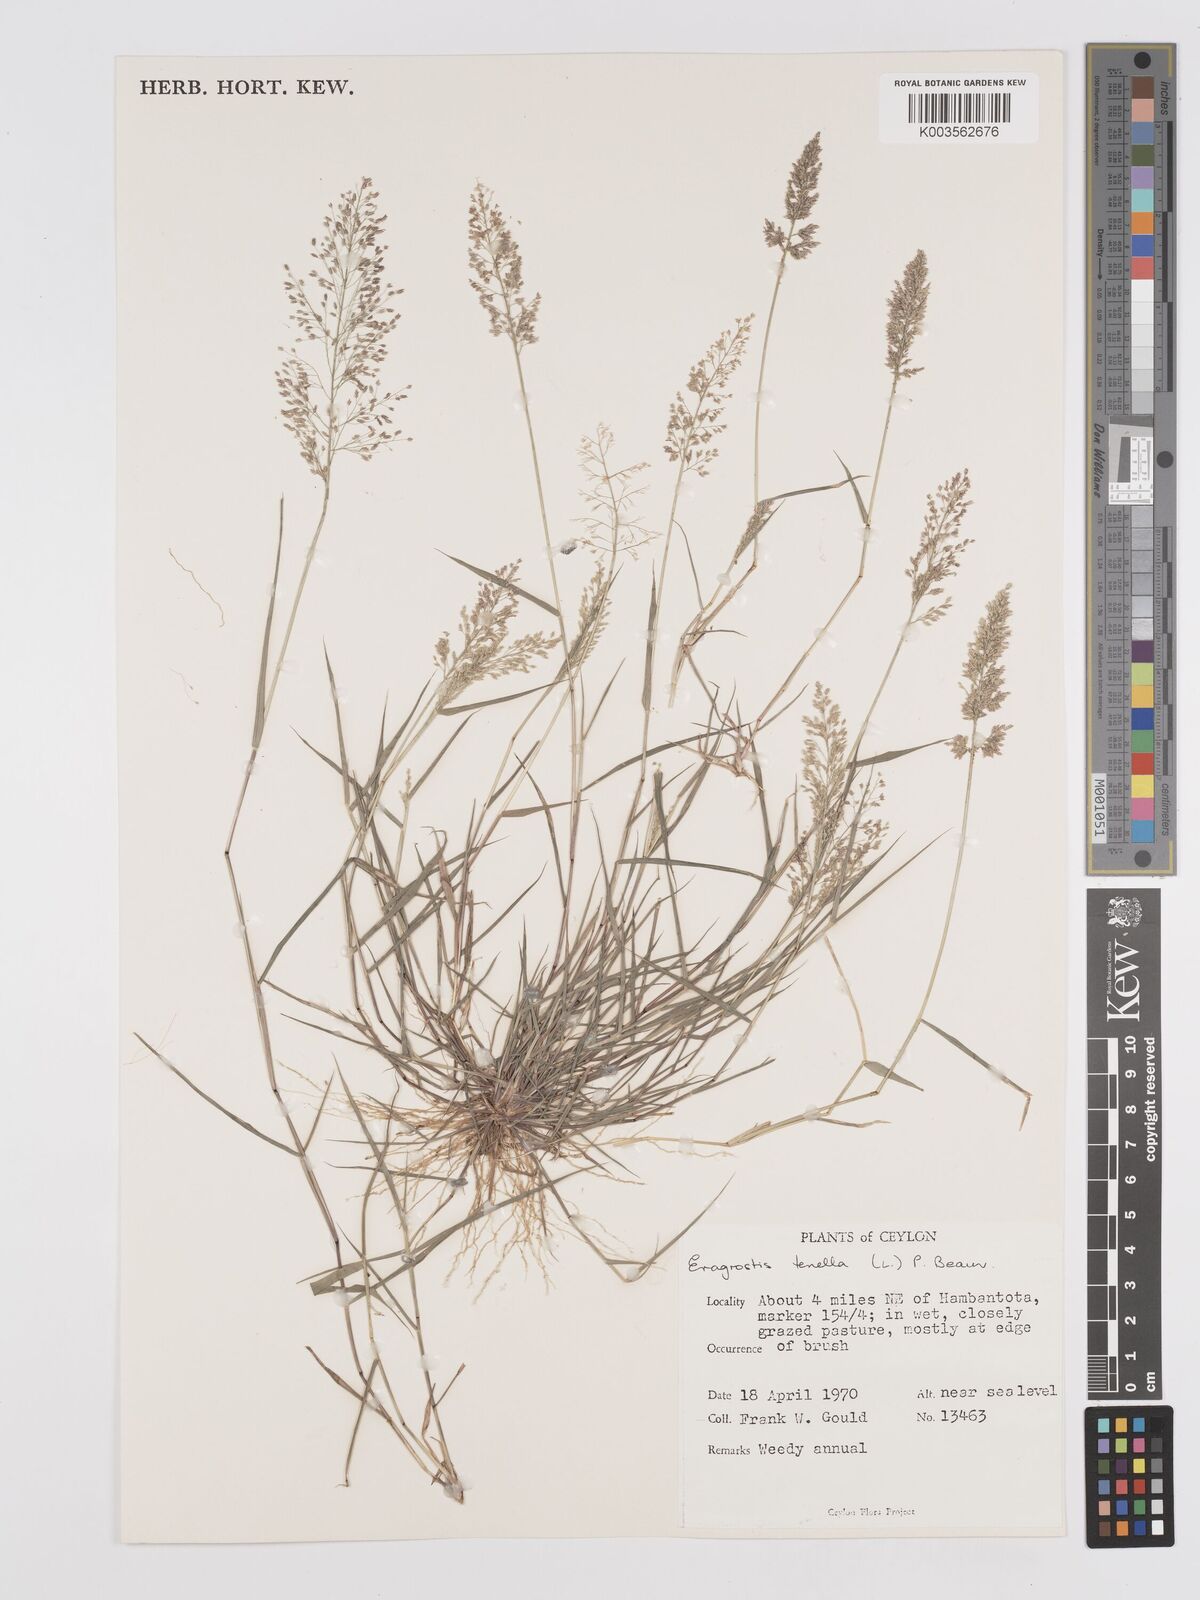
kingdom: Plantae
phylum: Tracheophyta
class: Liliopsida
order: Poales
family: Poaceae
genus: Eragrostis
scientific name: Eragrostis tenella
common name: Japanese lovegrass
